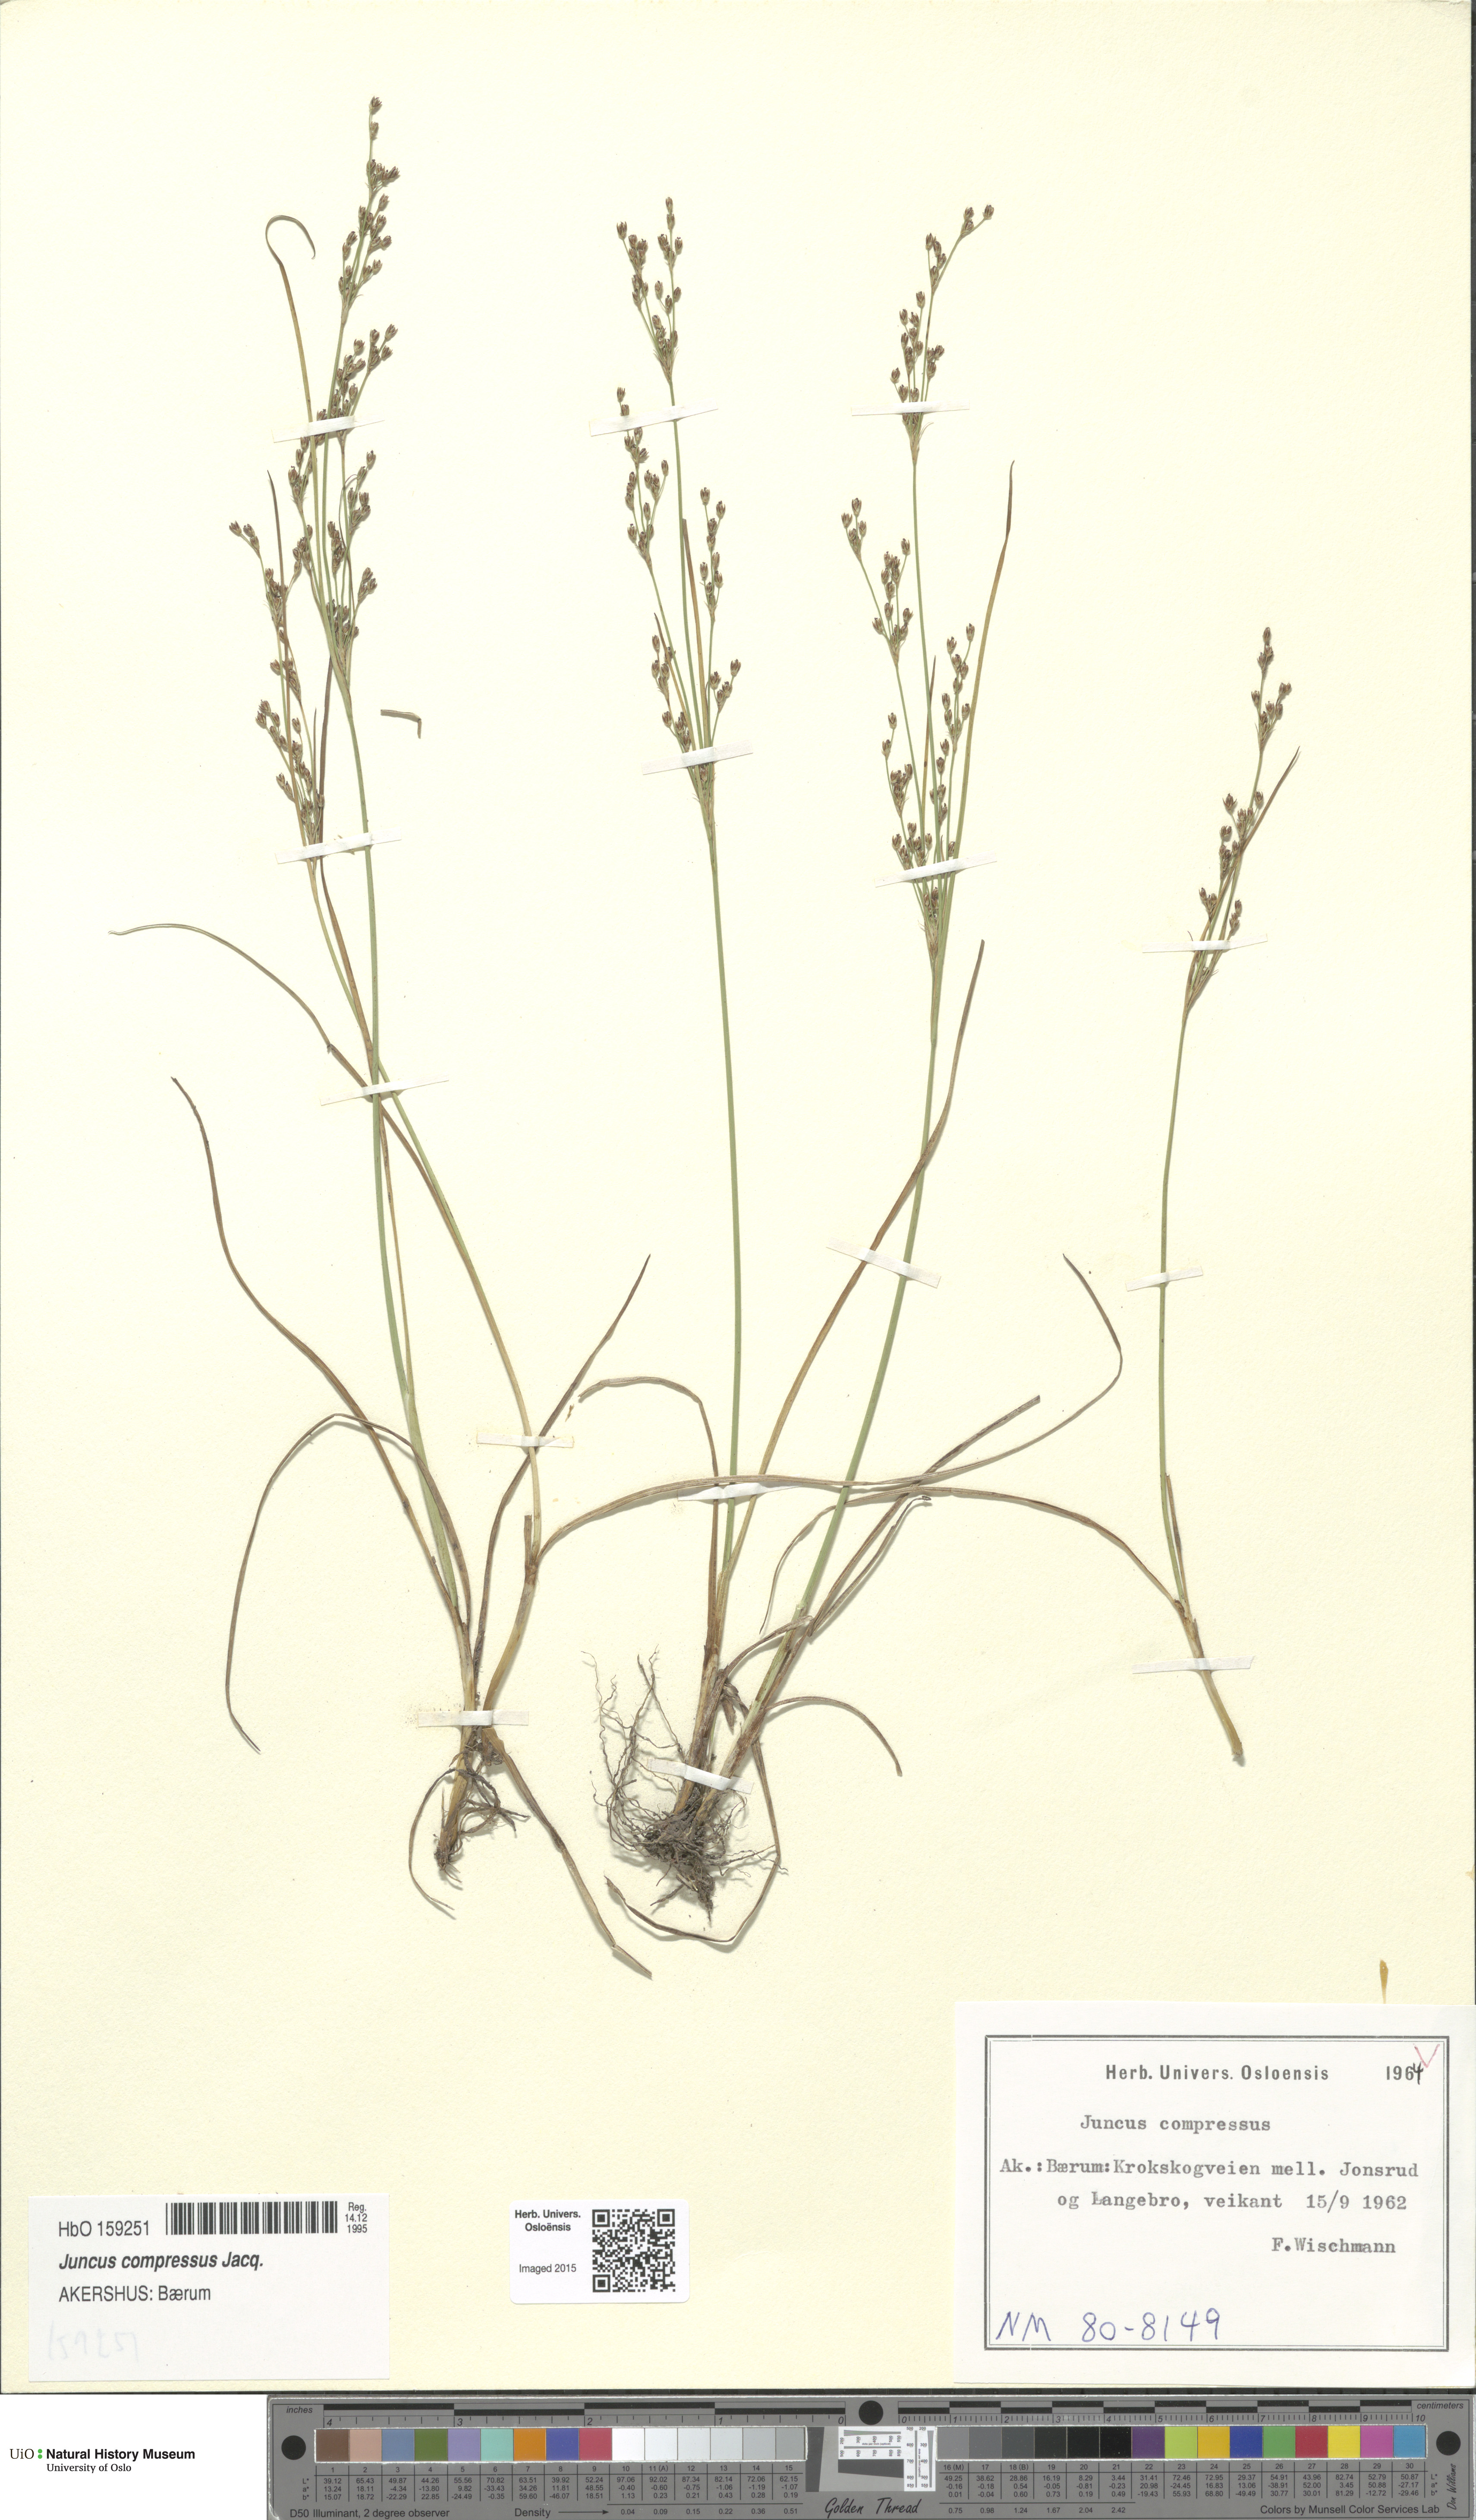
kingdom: Plantae
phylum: Tracheophyta
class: Liliopsida
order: Poales
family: Juncaceae
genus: Juncus
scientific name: Juncus compressus
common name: Round-fruited rush
